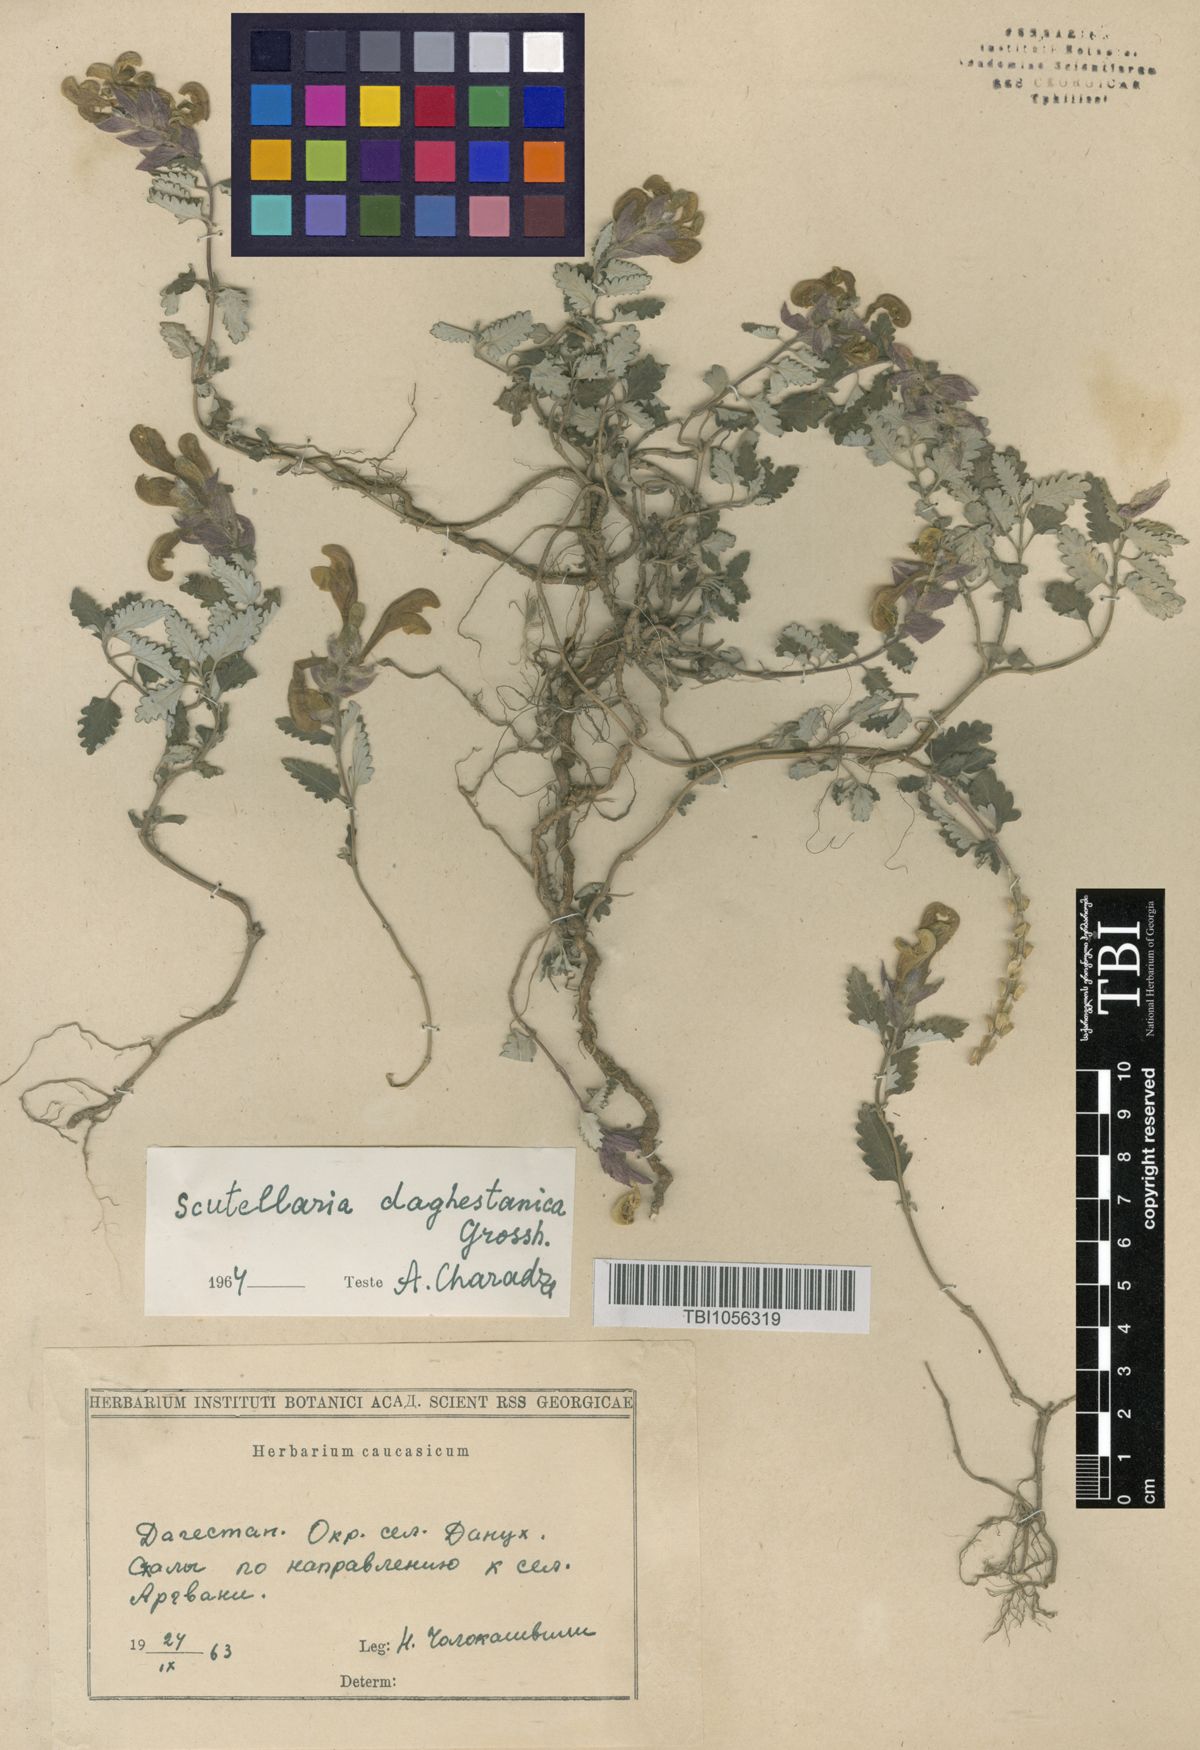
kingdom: Plantae
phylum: Tracheophyta
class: Magnoliopsida
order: Lamiales
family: Lamiaceae
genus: Scutellaria
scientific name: Scutellaria daghestanica
